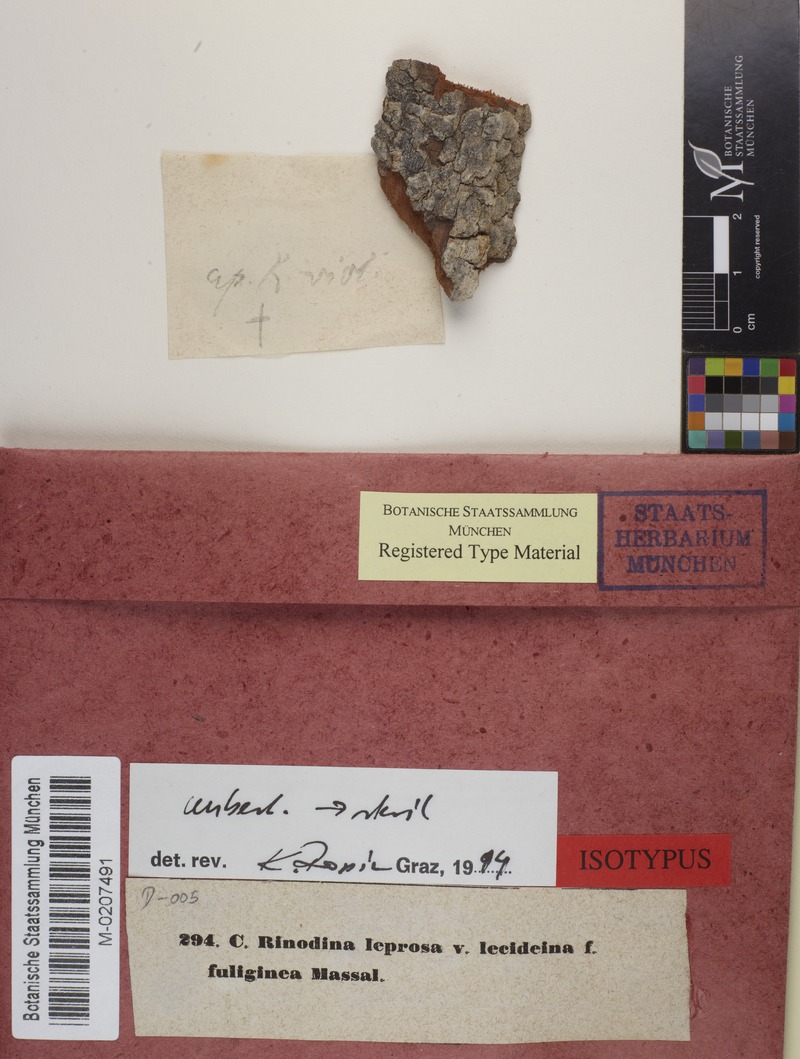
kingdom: Fungi
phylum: Ascomycota
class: Lecanoromycetes
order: Caliciales
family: Physciaceae
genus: Rinodina
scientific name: Rinodina pityrea
